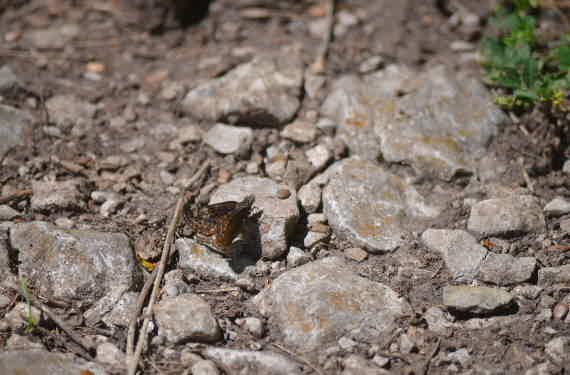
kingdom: Animalia
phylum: Arthropoda
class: Insecta
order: Lepidoptera
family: Hesperiidae
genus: Erynnis
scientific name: Erynnis
